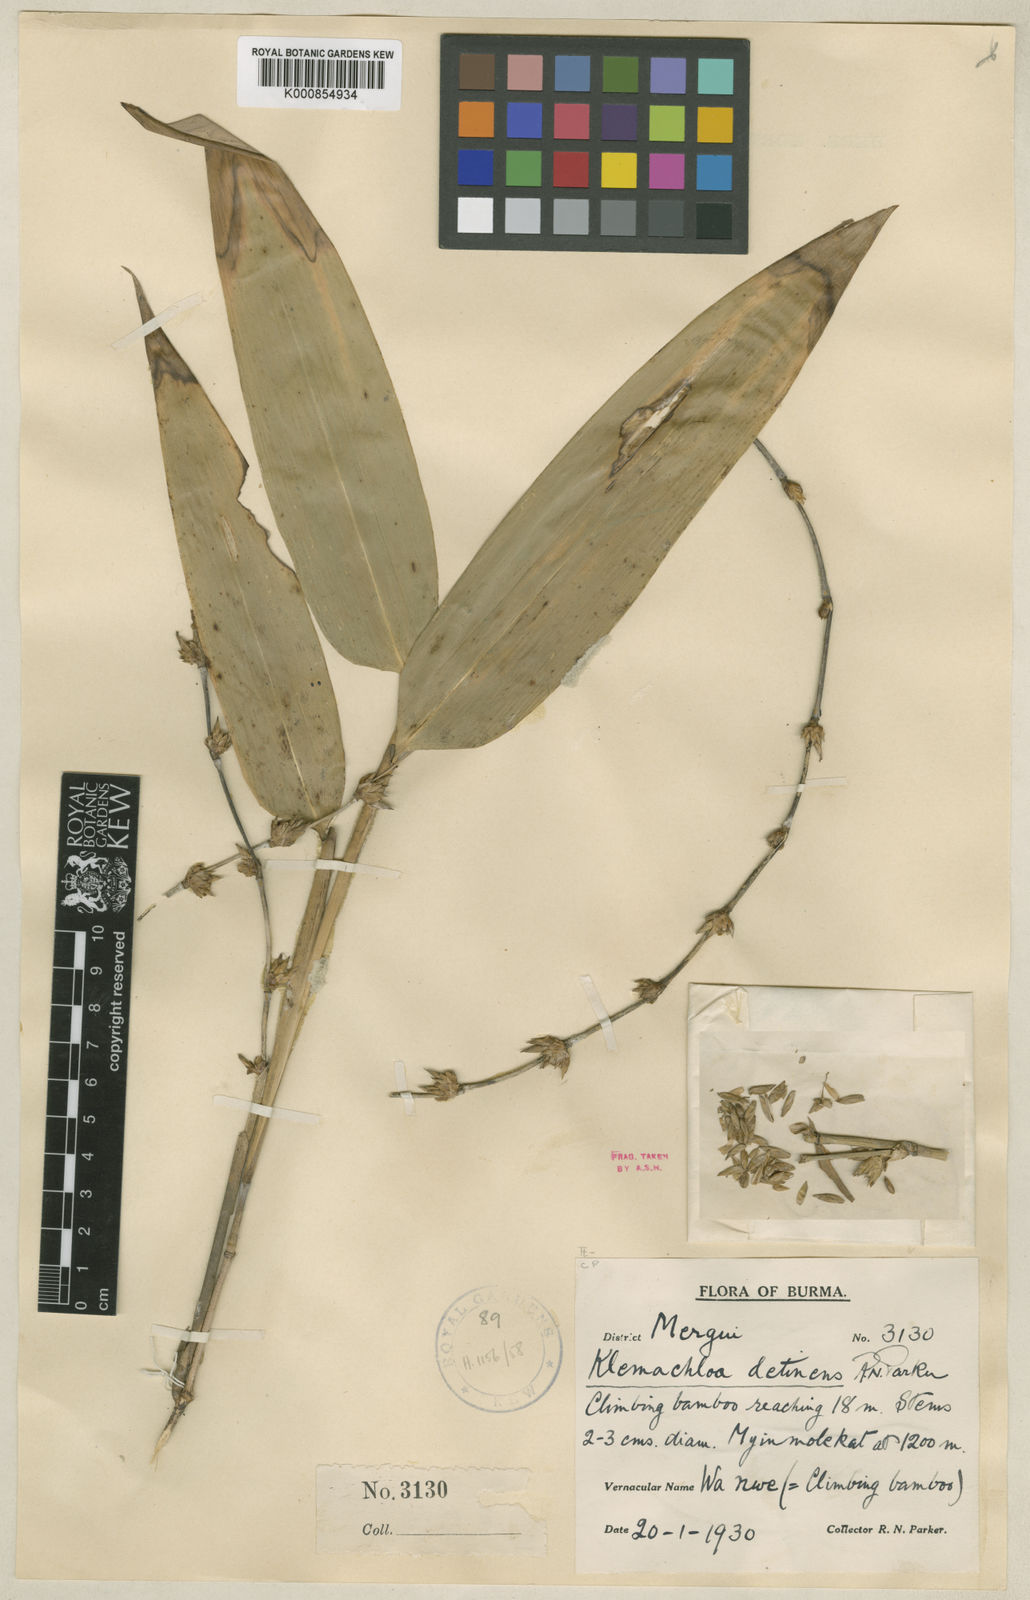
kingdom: Plantae
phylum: Tracheophyta
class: Liliopsida
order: Poales
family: Poaceae
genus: Dendrocalamus
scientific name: Dendrocalamus detinens
